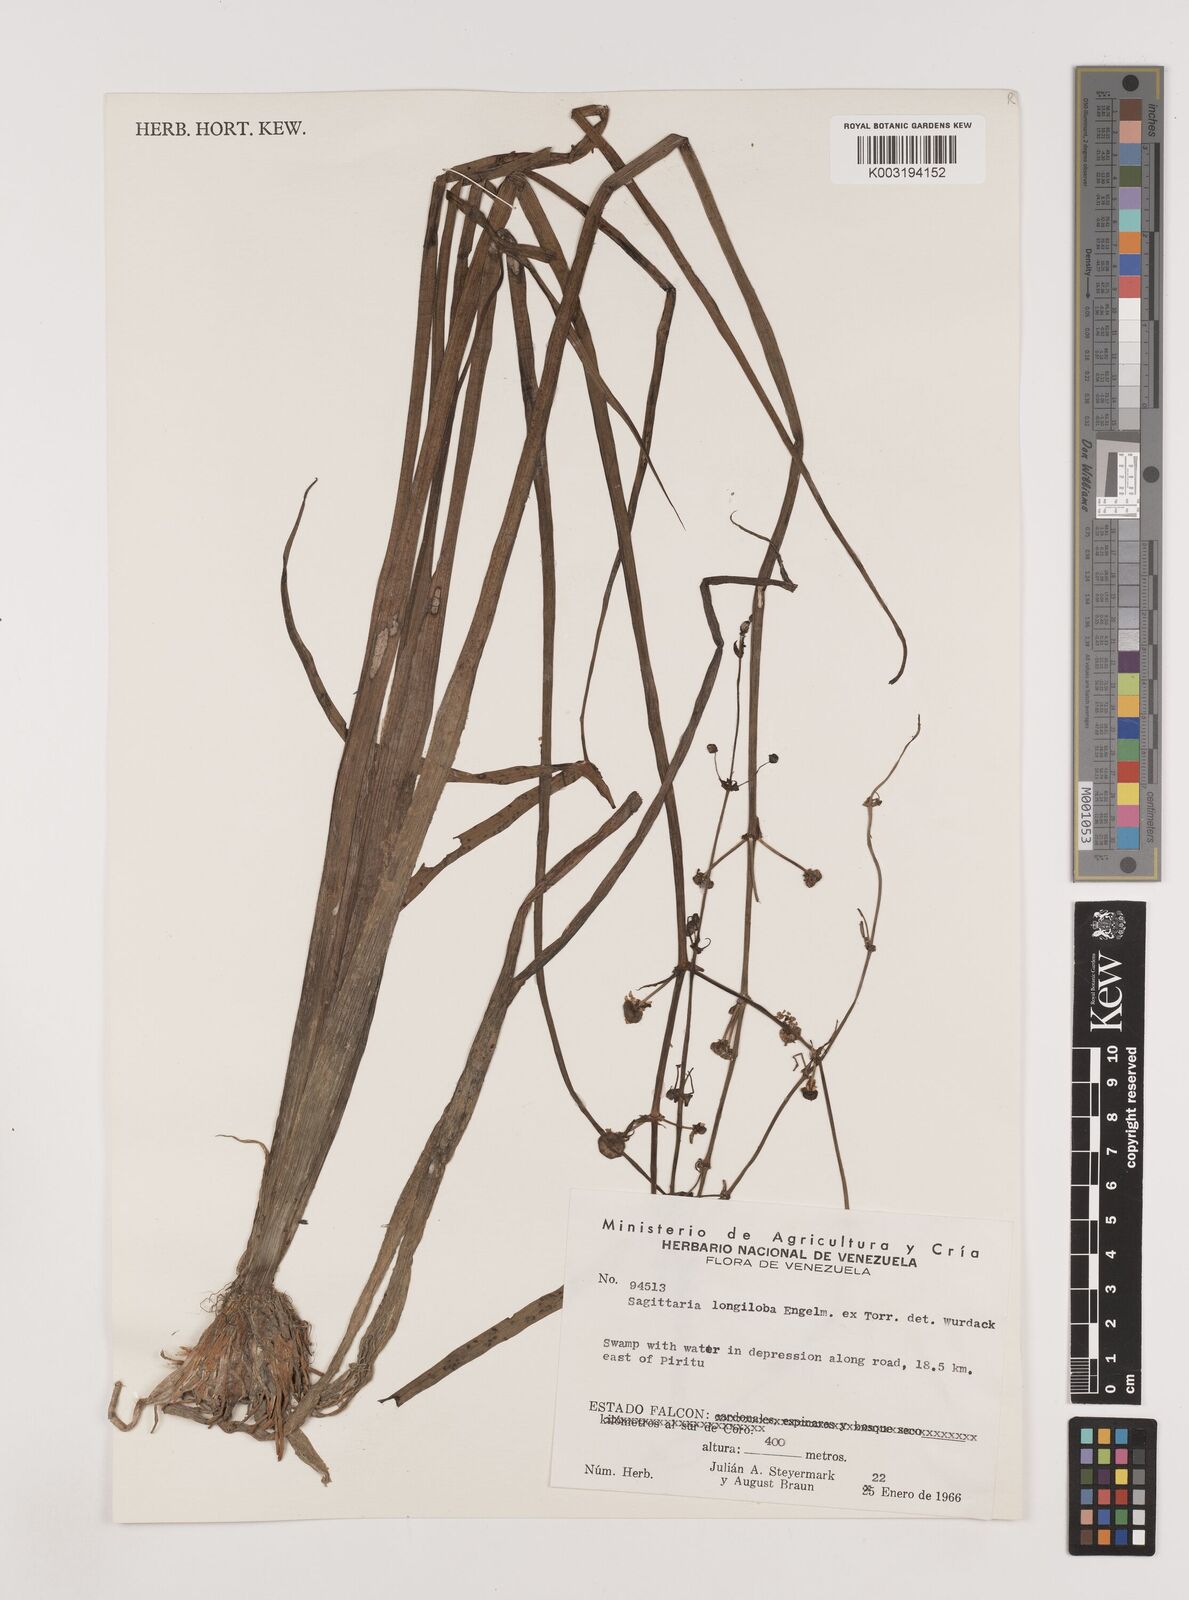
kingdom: Plantae
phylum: Tracheophyta
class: Liliopsida
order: Alismatales
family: Alismataceae
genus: Sagittaria
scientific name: Sagittaria longiloba
